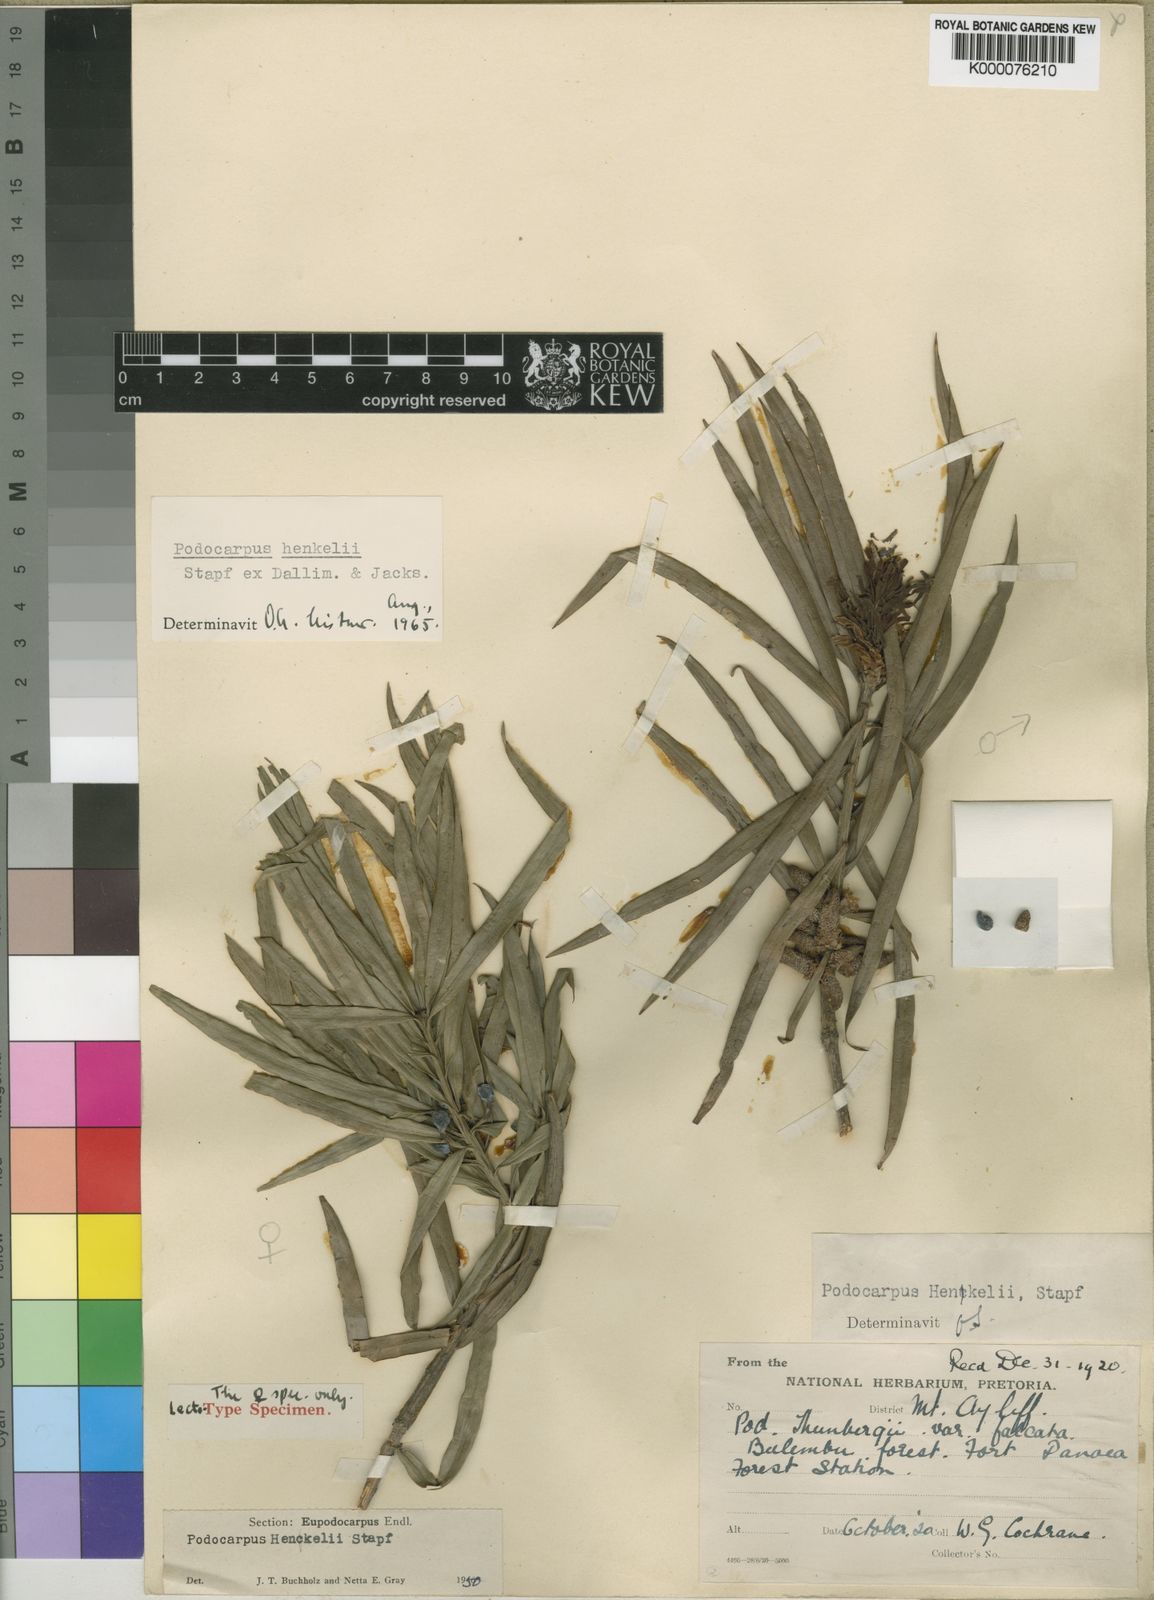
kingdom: Plantae
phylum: Tracheophyta
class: Pinopsida
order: Pinales
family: Podocarpaceae
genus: Podocarpus
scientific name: Podocarpus henkelii
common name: Henkel's yellowwood
